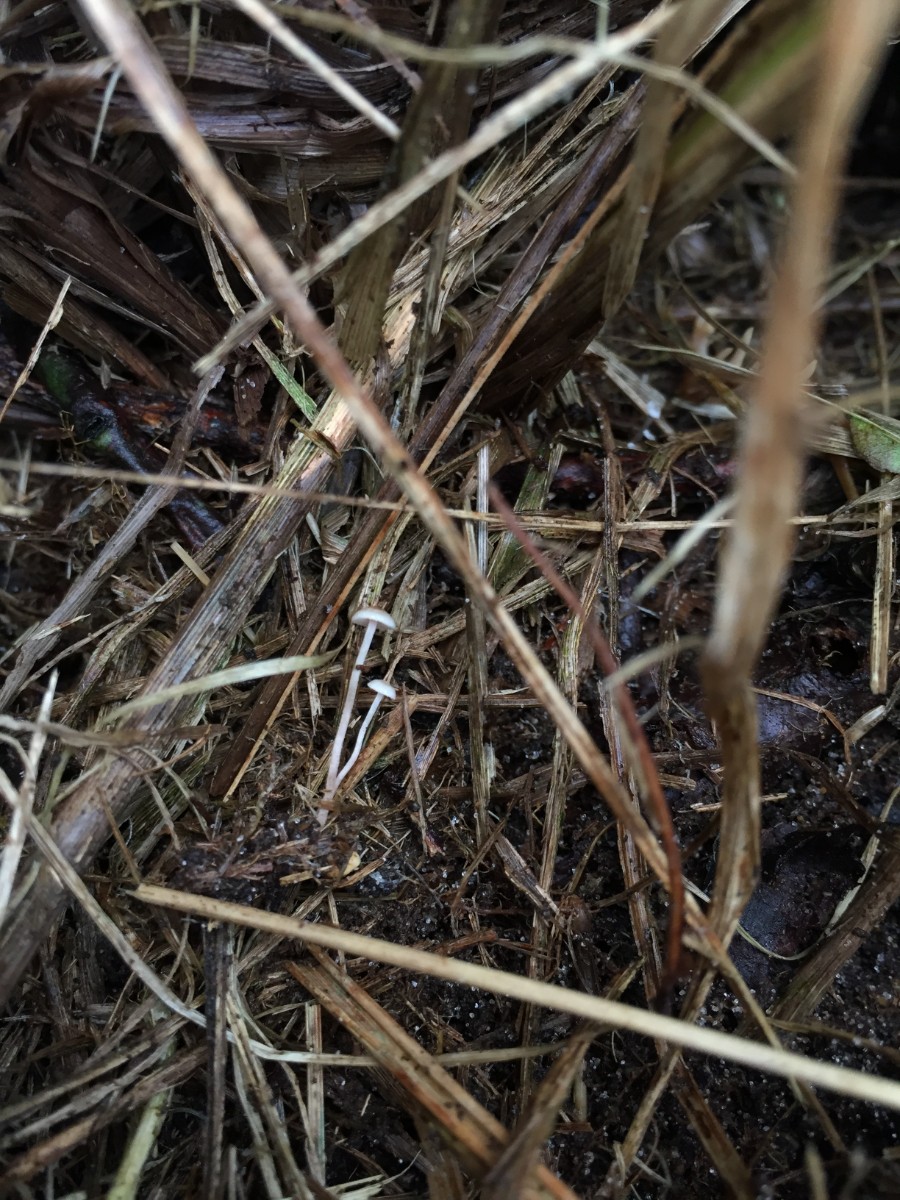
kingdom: Fungi
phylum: Basidiomycota
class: Agaricomycetes
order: Agaricales
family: Tricholomataceae
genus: Collybia
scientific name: Collybia cookei
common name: gulknoldet lighat
